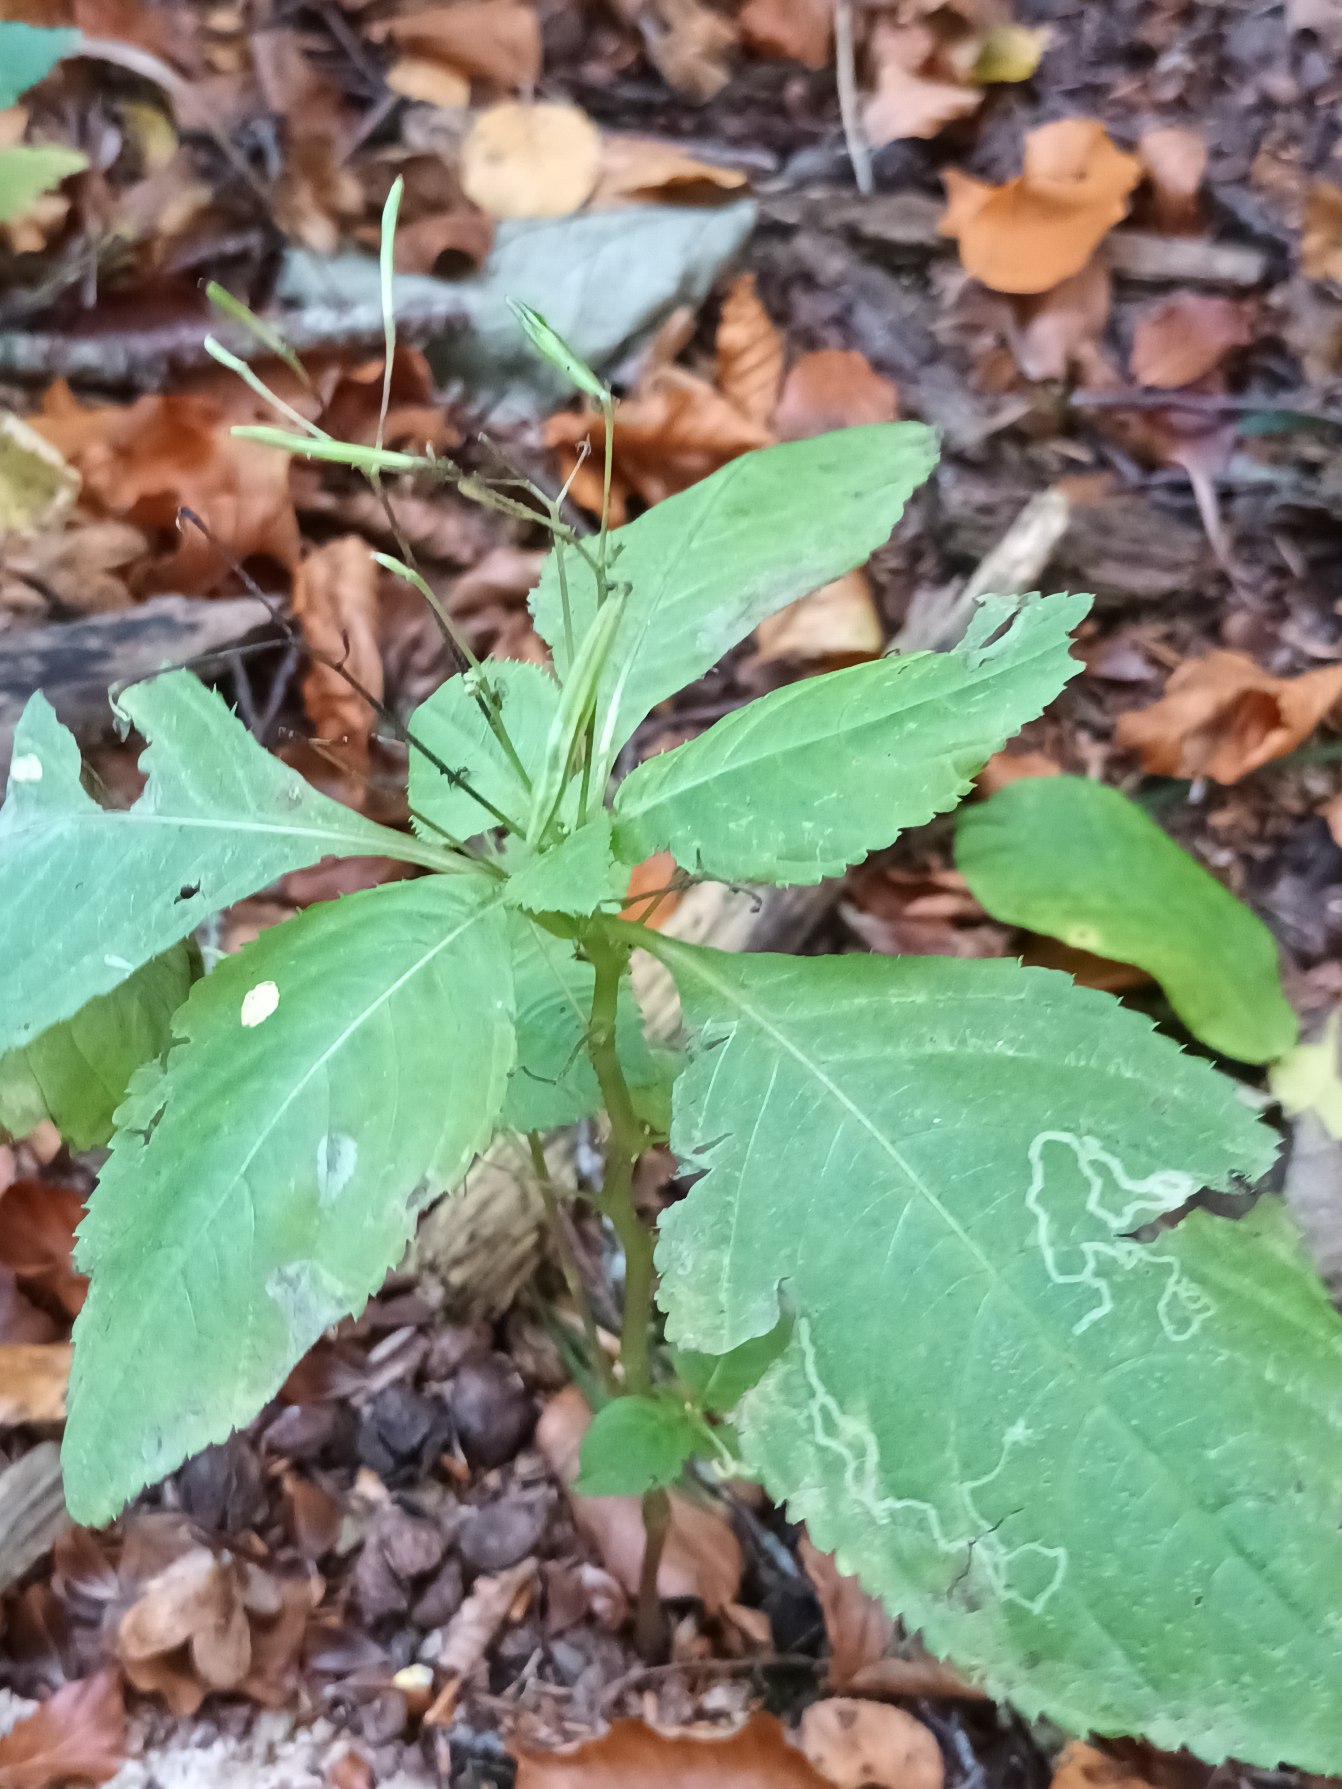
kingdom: Plantae
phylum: Tracheophyta
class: Magnoliopsida
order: Ericales
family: Balsaminaceae
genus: Impatiens
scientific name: Impatiens parviflora
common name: Småblomstret balsamin
